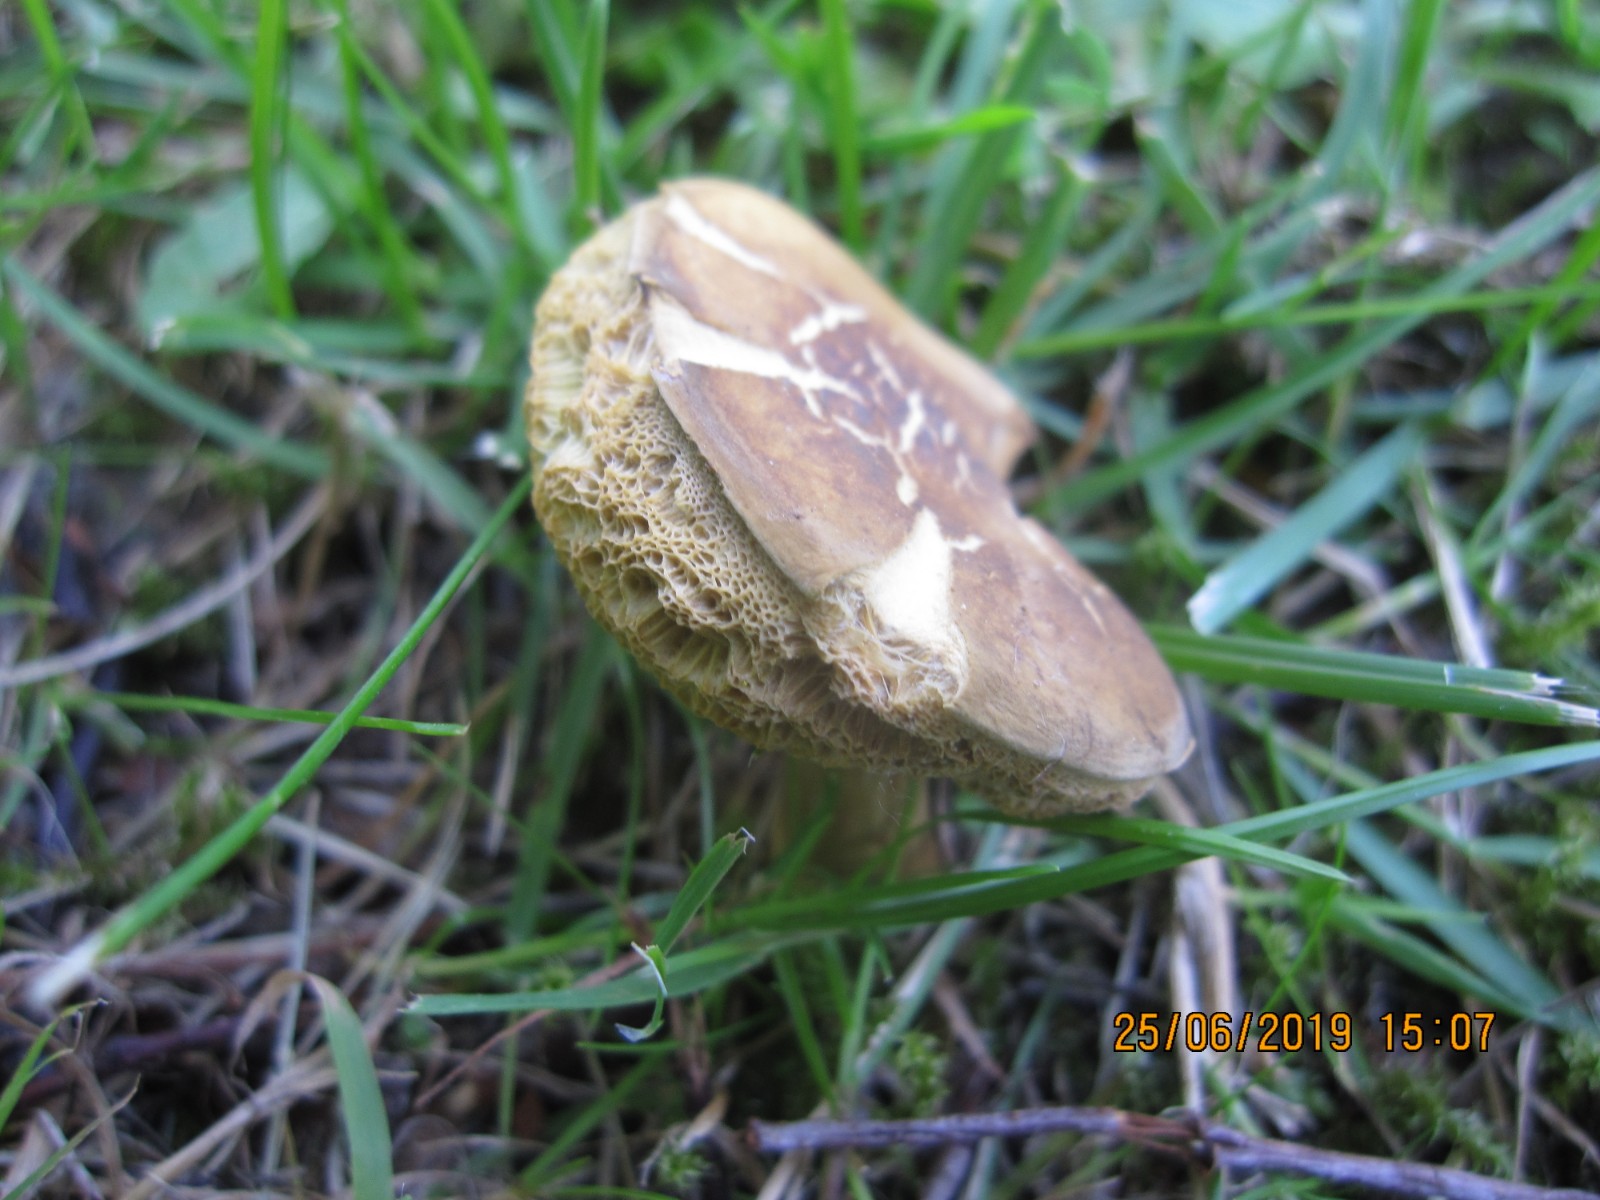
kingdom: Fungi
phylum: Basidiomycota
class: Agaricomycetes
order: Boletales
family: Boletaceae
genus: Hortiboletus
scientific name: Hortiboletus bubalinus
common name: aurora-rørhat
